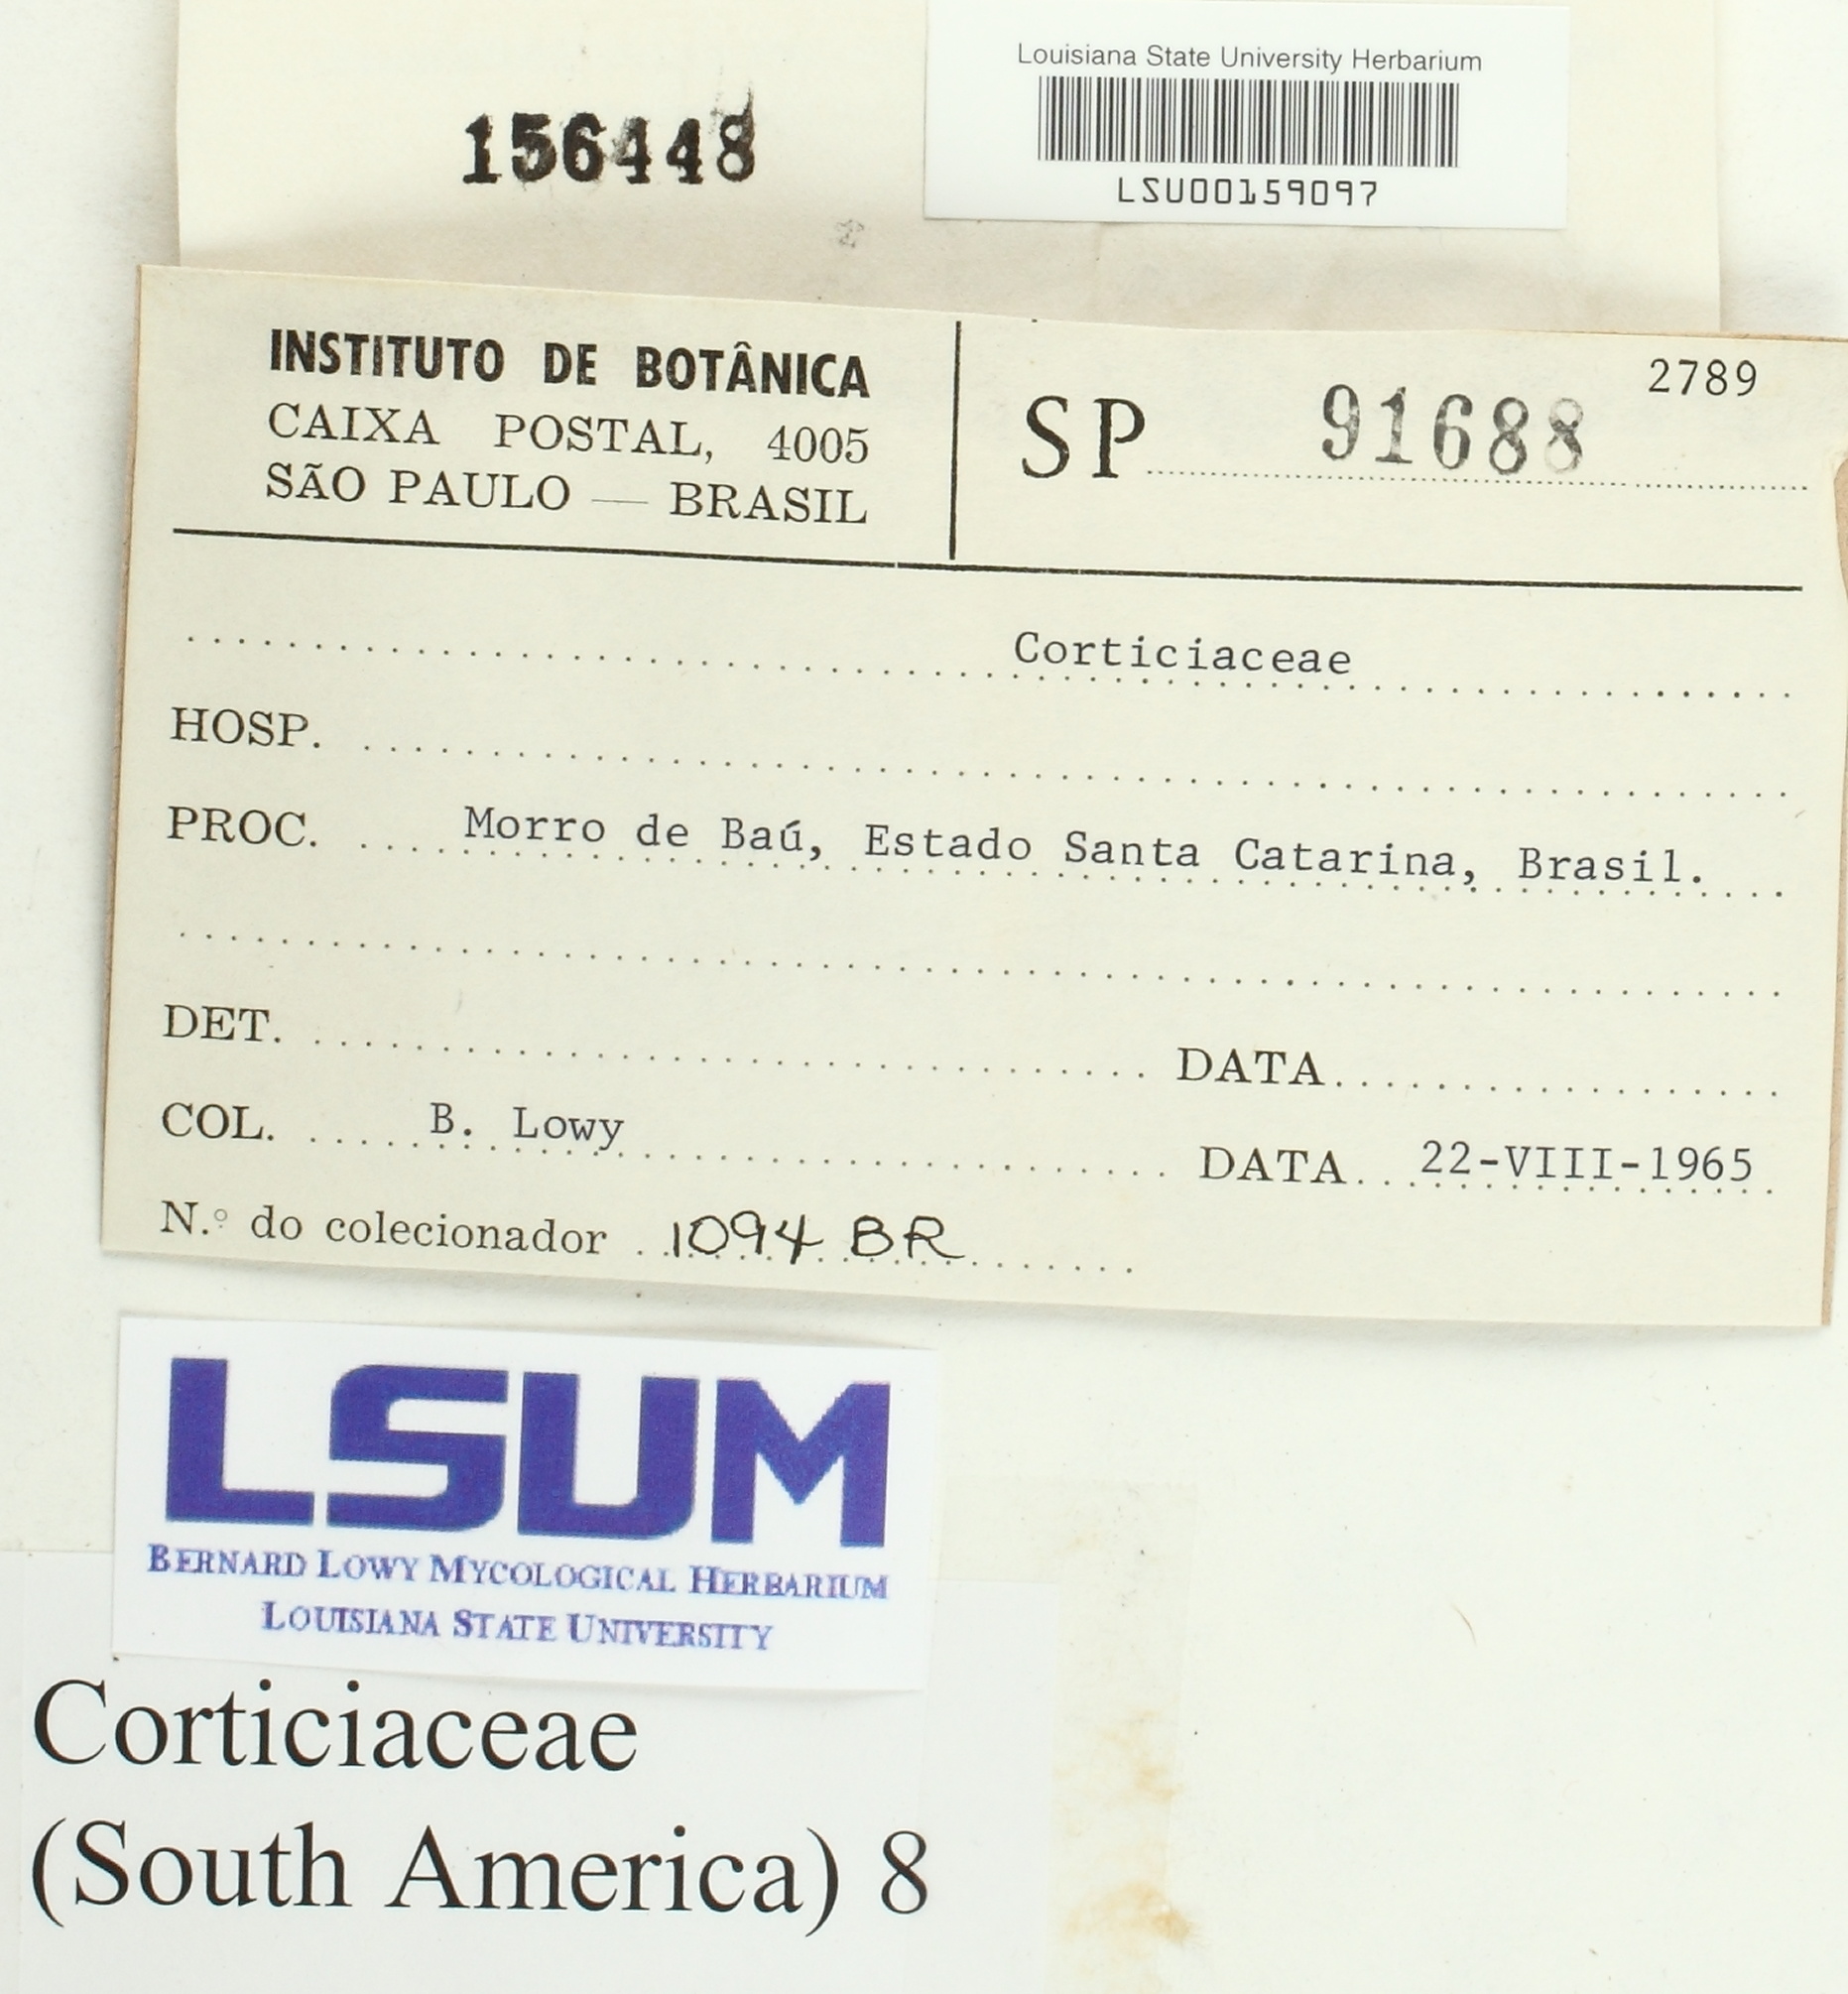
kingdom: Fungi
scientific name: Fungi
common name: Fungi
